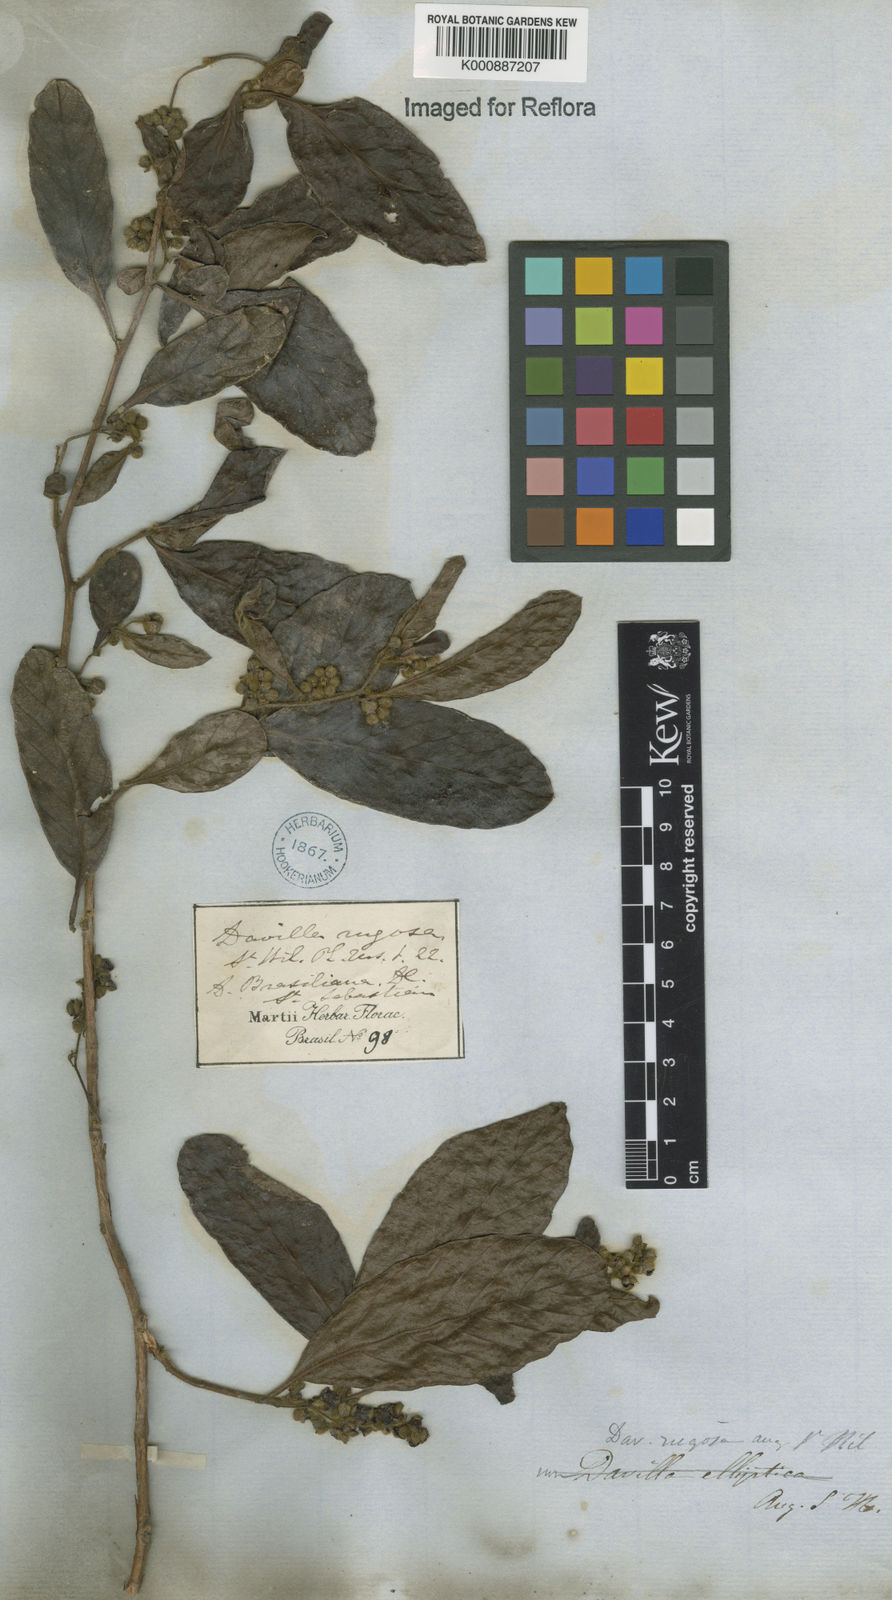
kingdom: Plantae
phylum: Tracheophyta
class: Magnoliopsida
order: Dilleniales
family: Dilleniaceae
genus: Davilla
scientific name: Davilla rugosa
